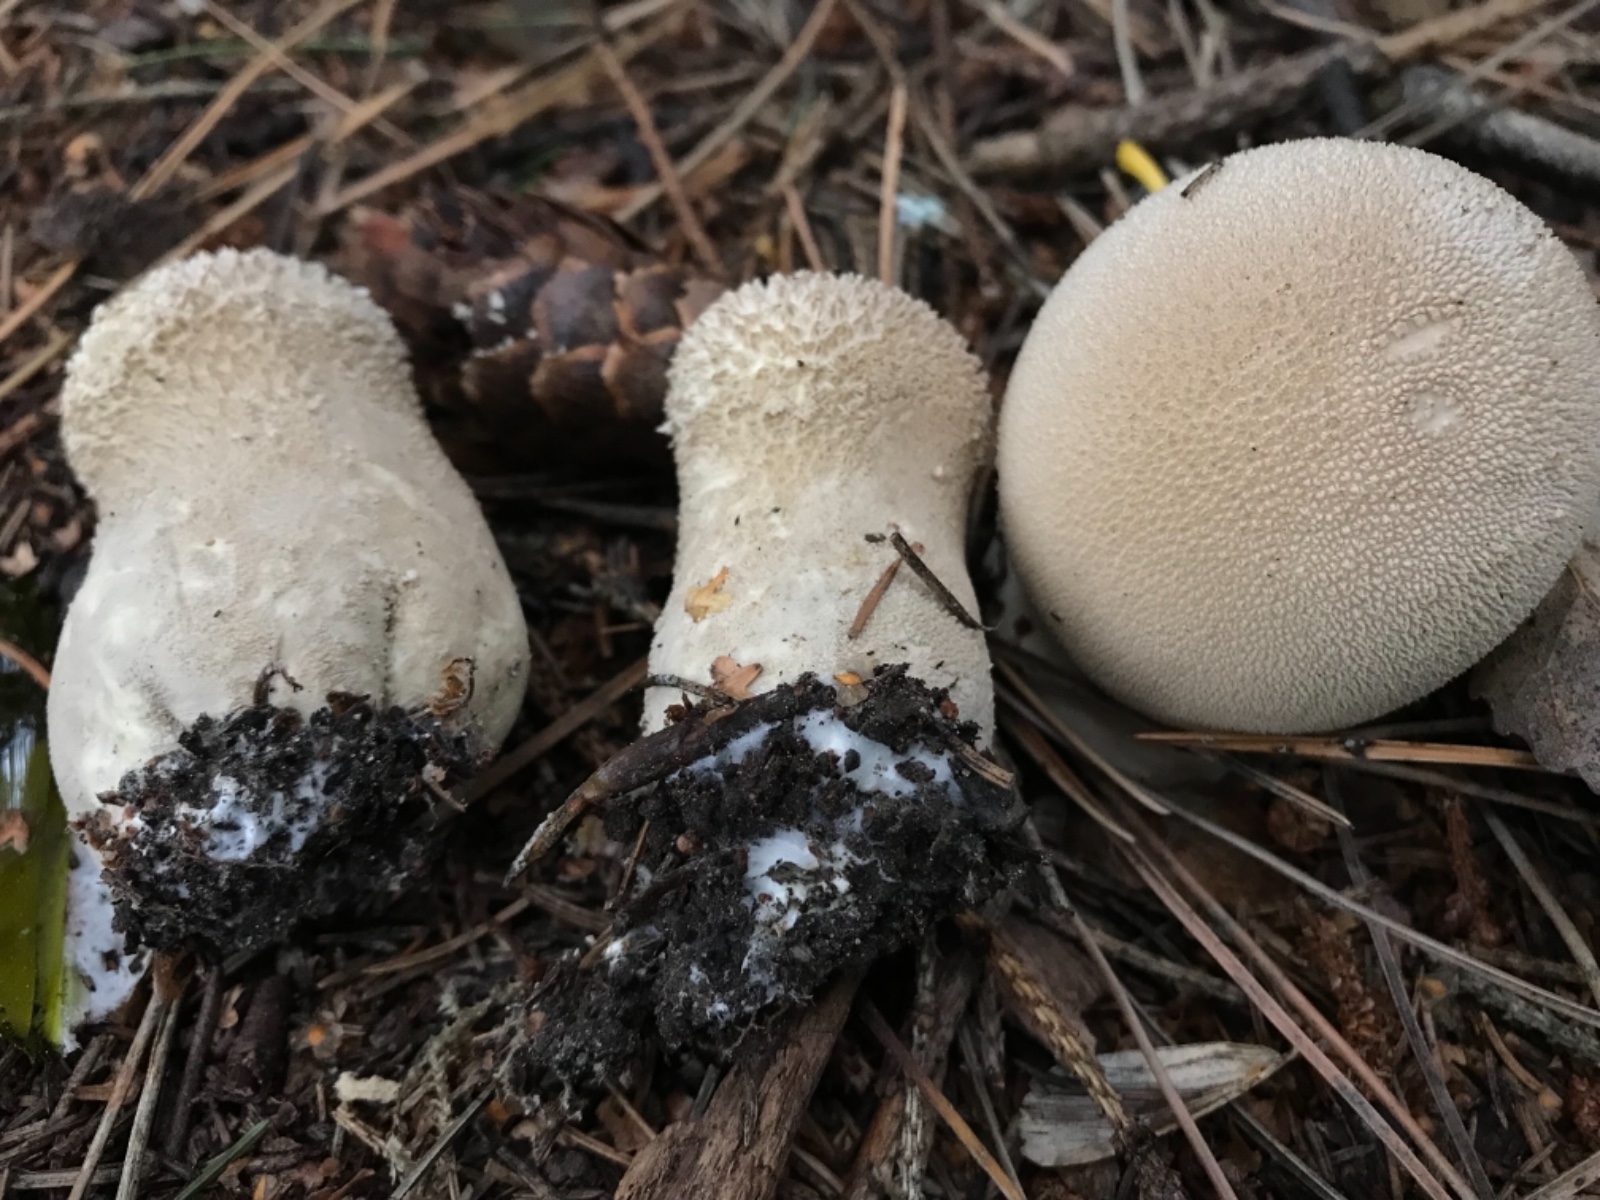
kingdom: Fungi
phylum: Basidiomycota
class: Agaricomycetes
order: Agaricales
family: Lycoperdaceae
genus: Lycoperdon
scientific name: Lycoperdon excipuliforme
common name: højstokket støvbold
